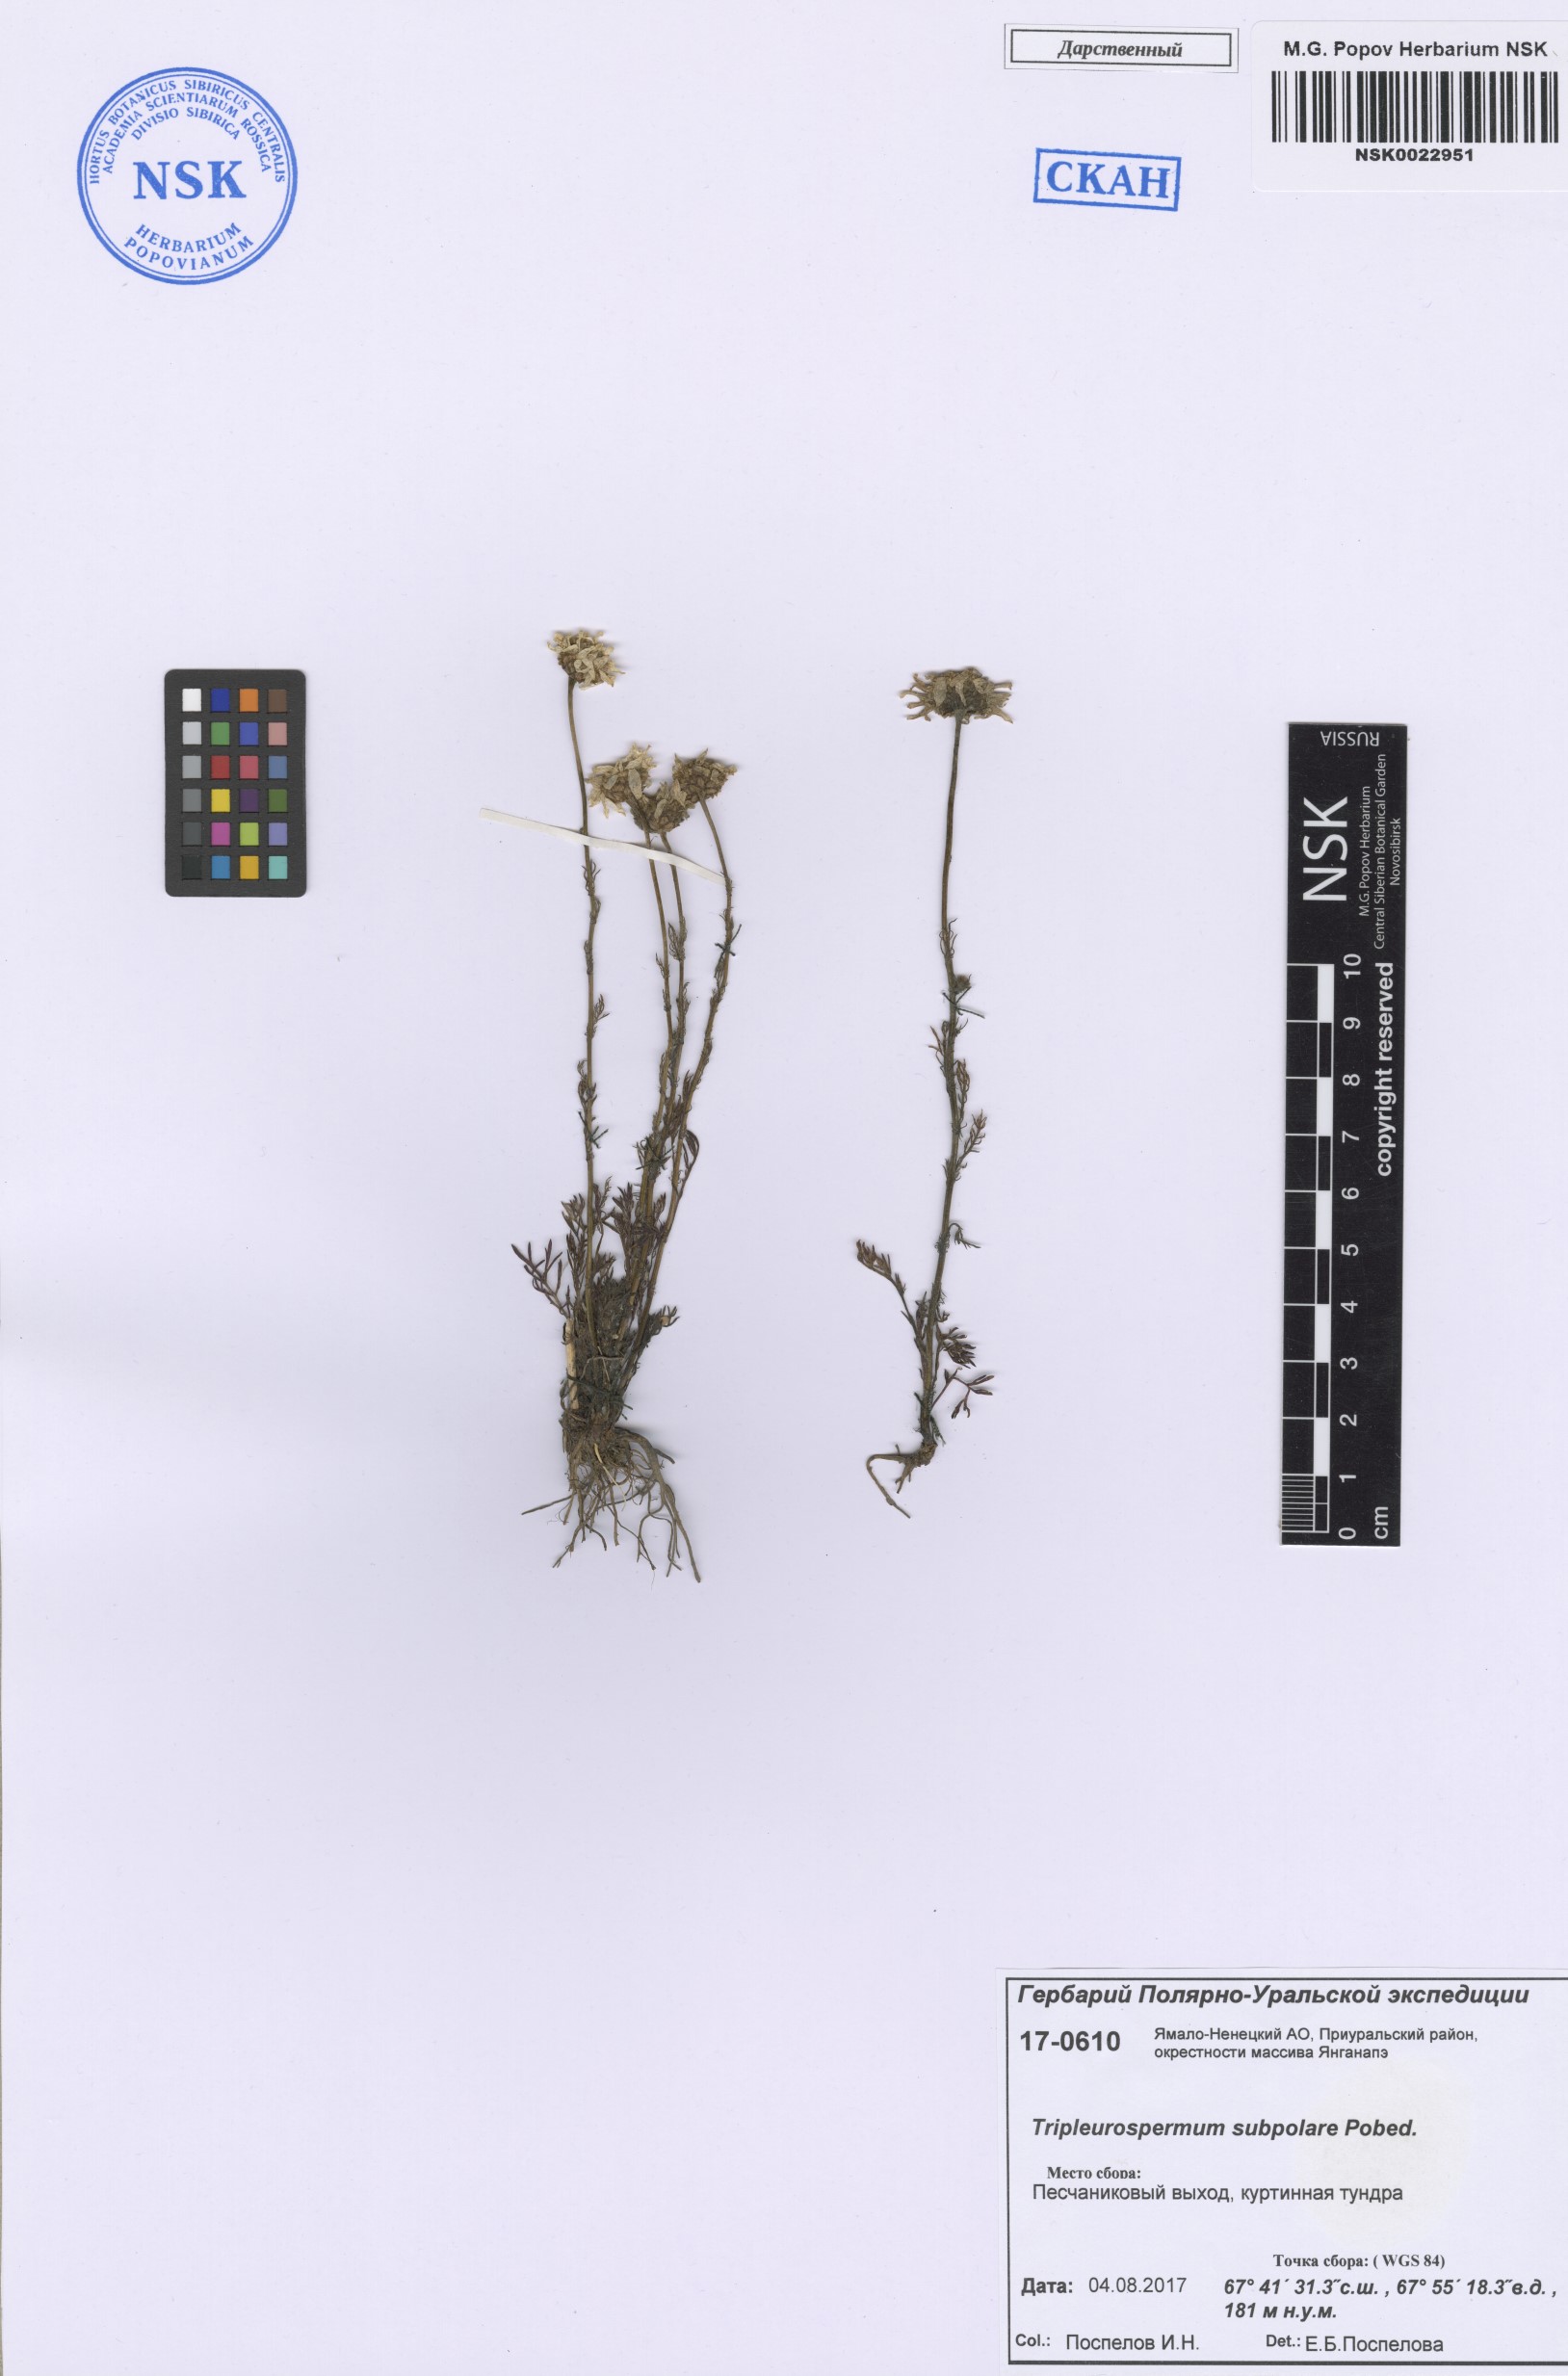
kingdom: Plantae
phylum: Tracheophyta
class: Magnoliopsida
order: Asterales
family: Asteraceae
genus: Tripleurospermum
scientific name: Tripleurospermum subpolare
